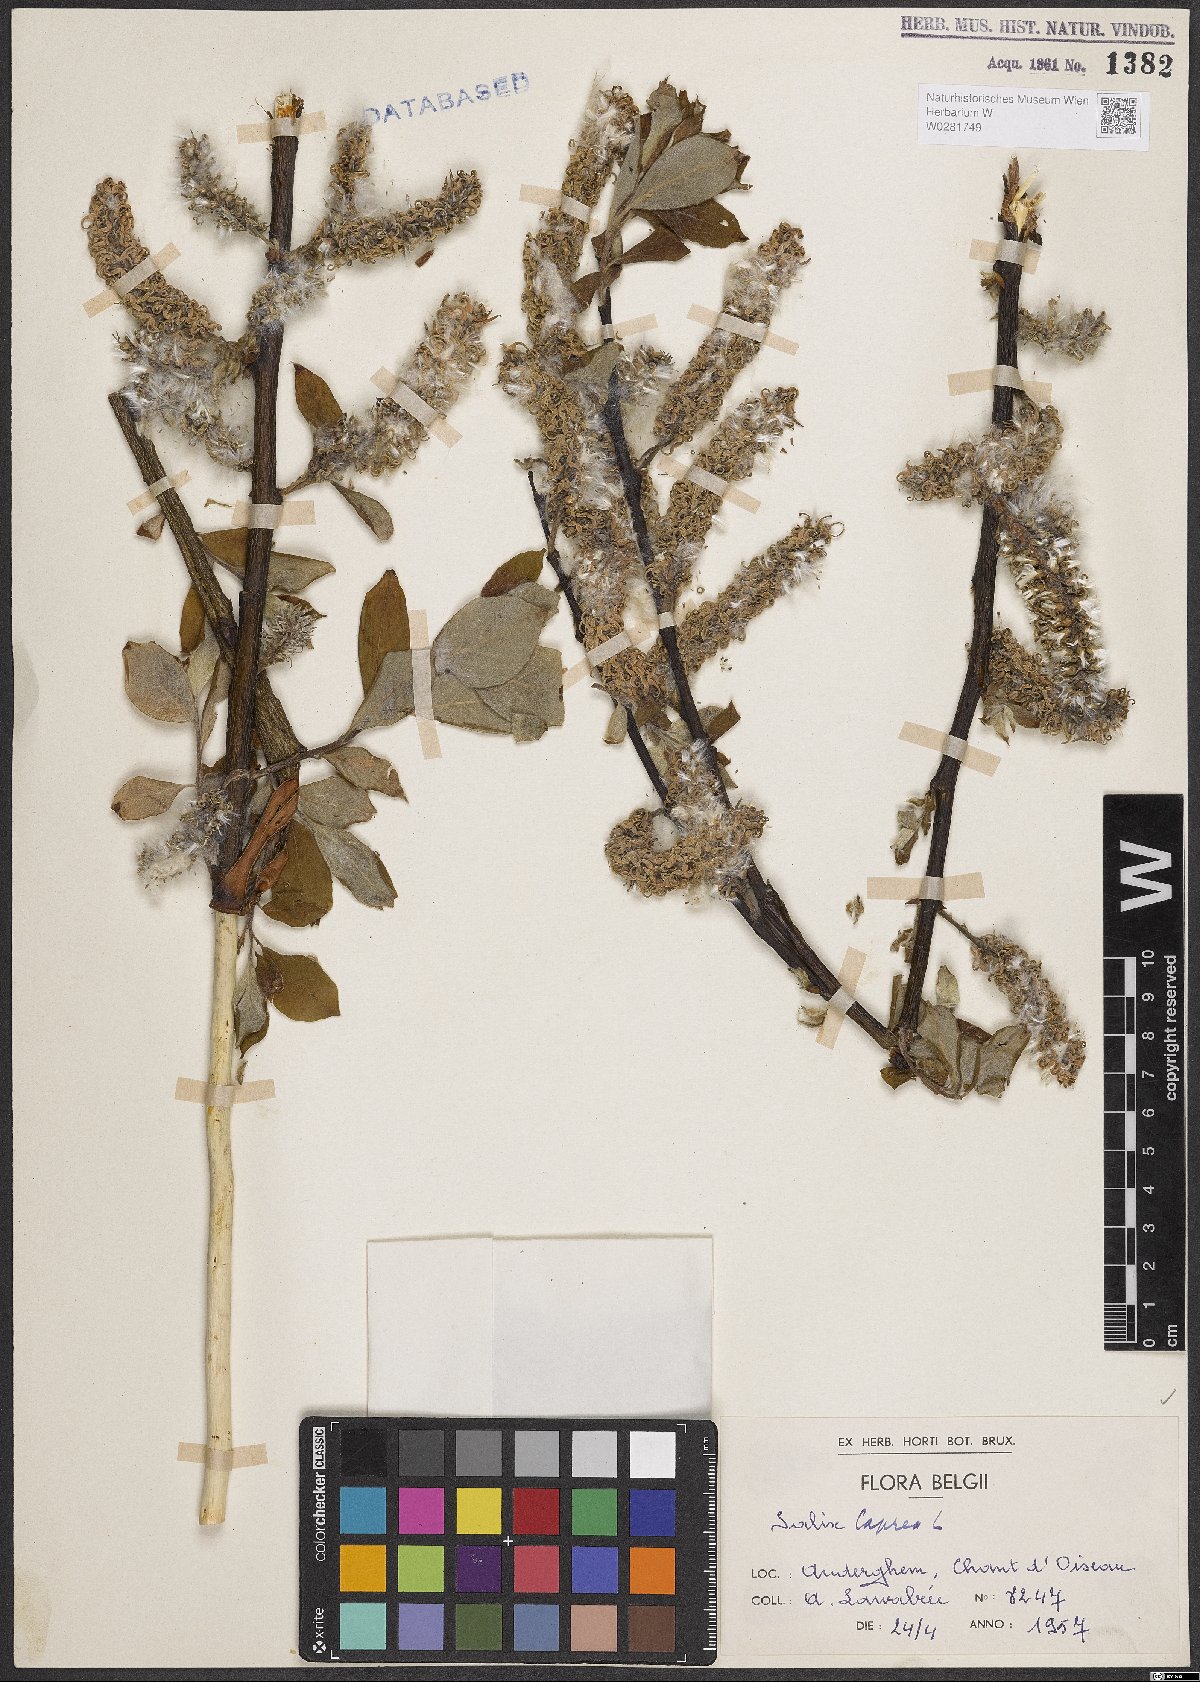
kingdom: Plantae
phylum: Tracheophyta
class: Magnoliopsida
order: Malpighiales
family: Salicaceae
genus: Salix
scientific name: Salix caprea
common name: Goat willow
